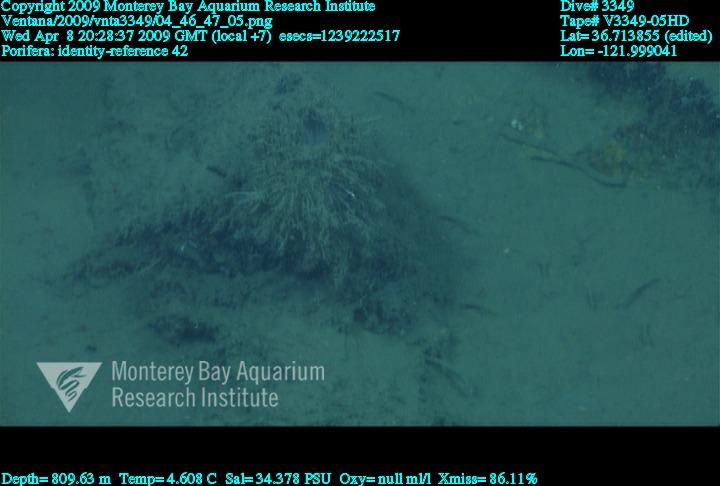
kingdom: Animalia
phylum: Porifera
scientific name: Porifera
